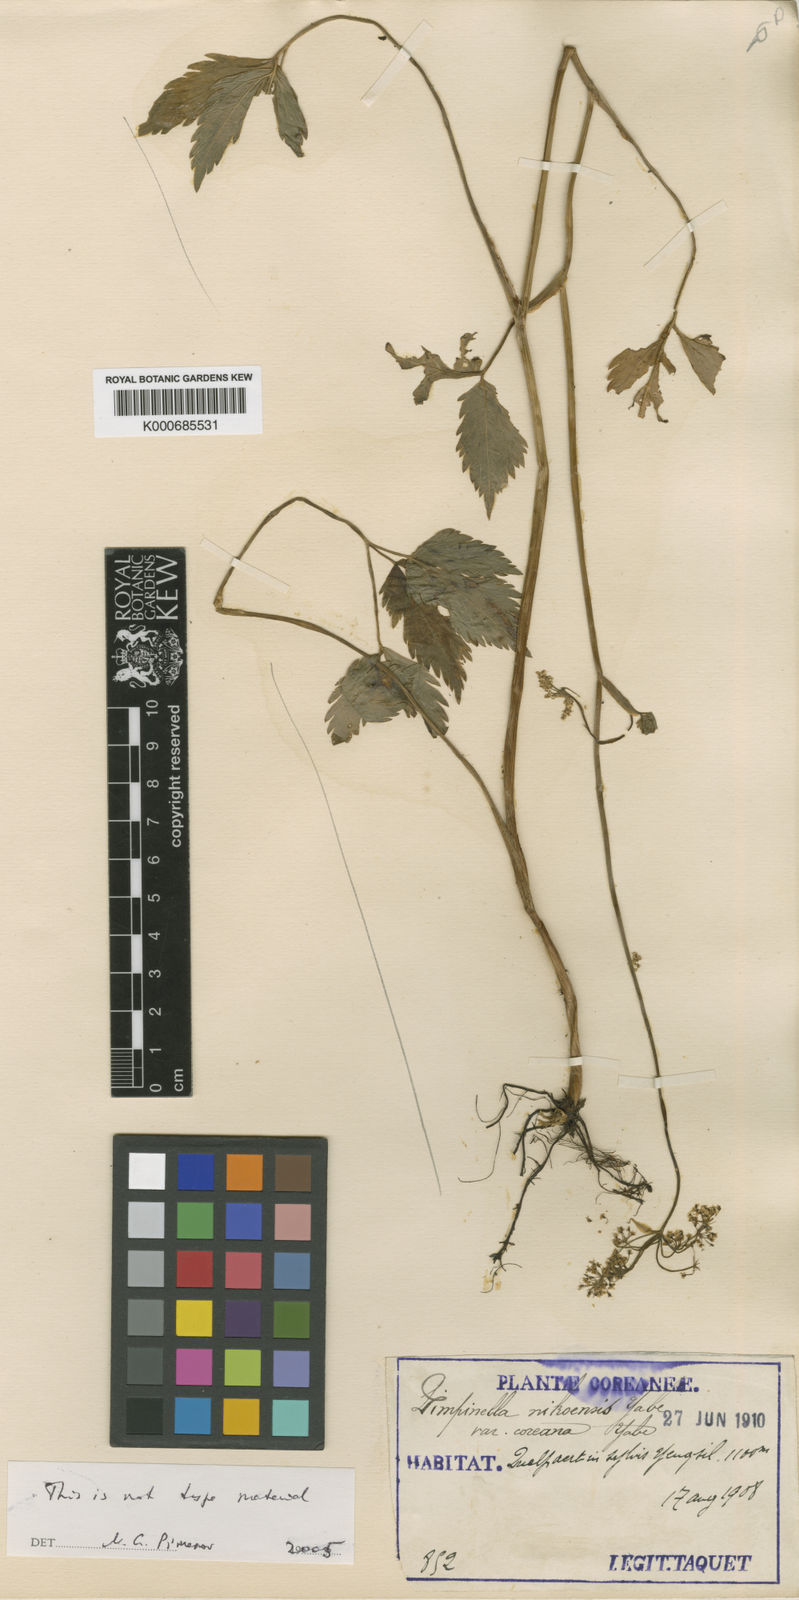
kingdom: Plantae
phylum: Tracheophyta
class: Magnoliopsida
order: Apiales
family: Apiaceae
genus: Spuriopimpinella
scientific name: Spuriopimpinella brachycarpa
